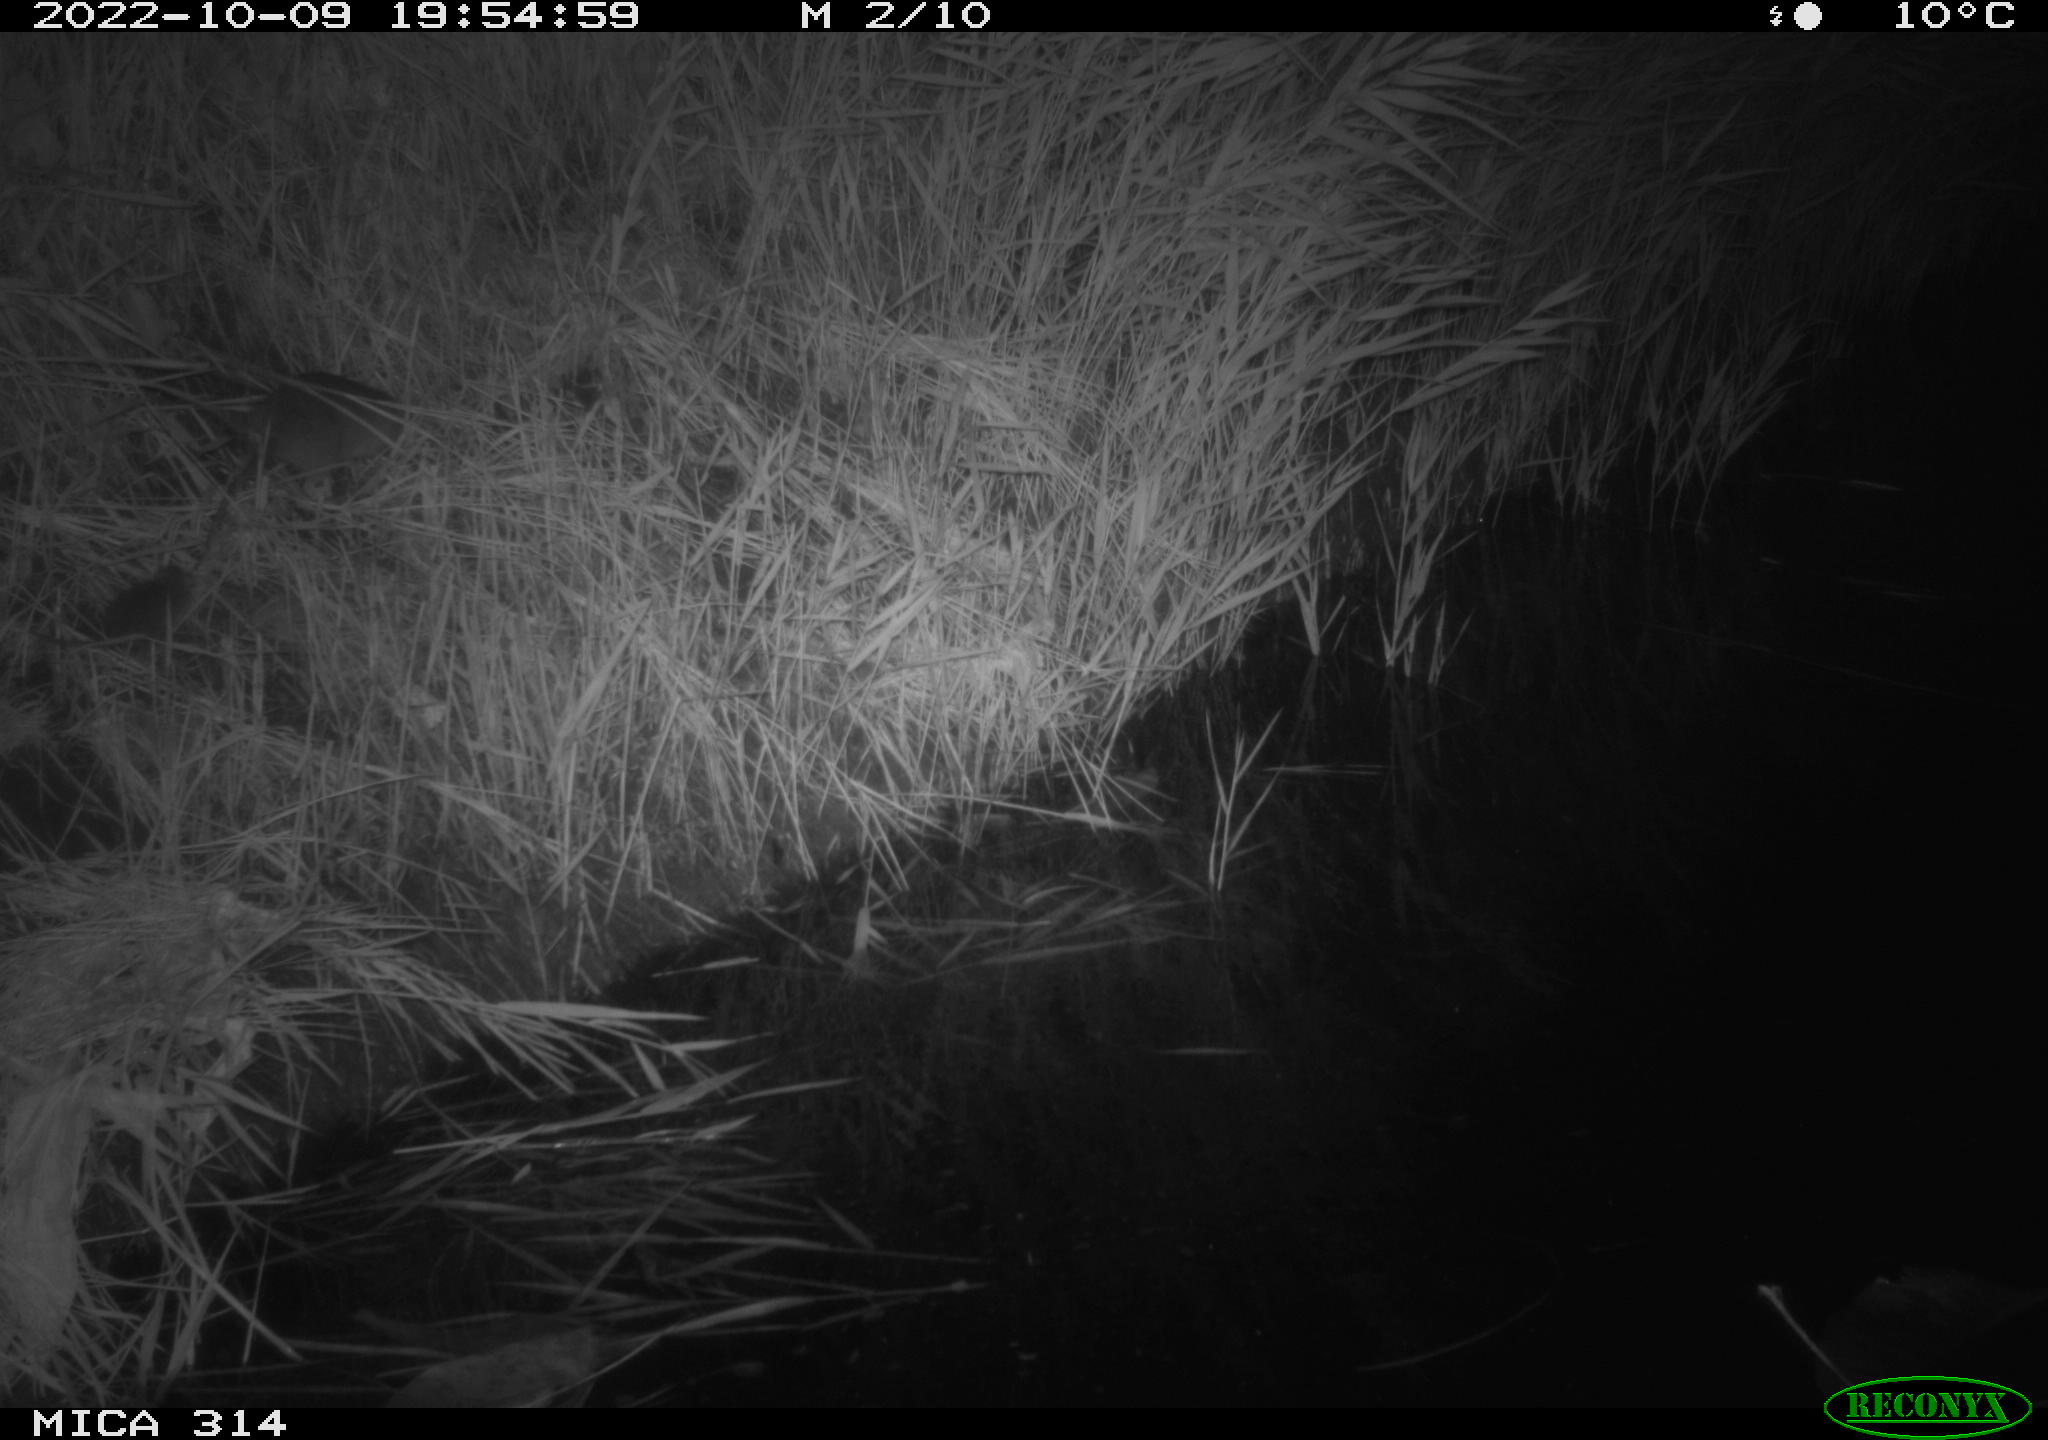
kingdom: Animalia
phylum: Chordata
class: Mammalia
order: Rodentia
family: Cricetidae
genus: Ondatra
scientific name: Ondatra zibethicus
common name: Muskrat
